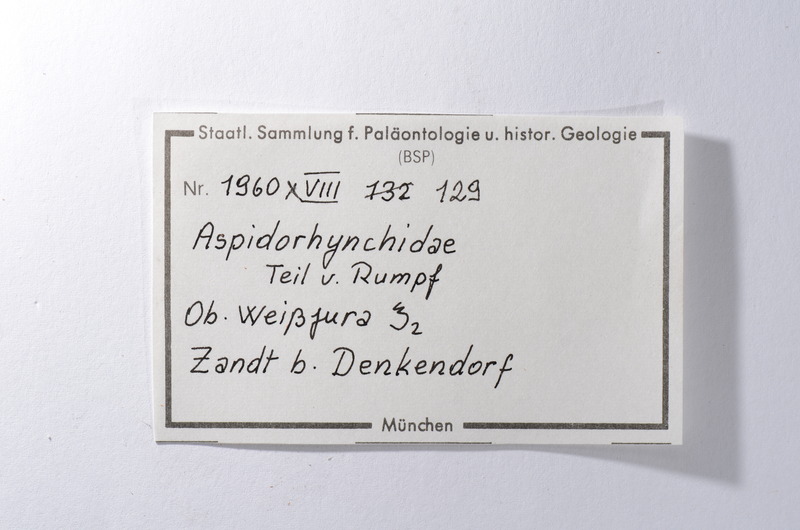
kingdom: Animalia
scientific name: Animalia
